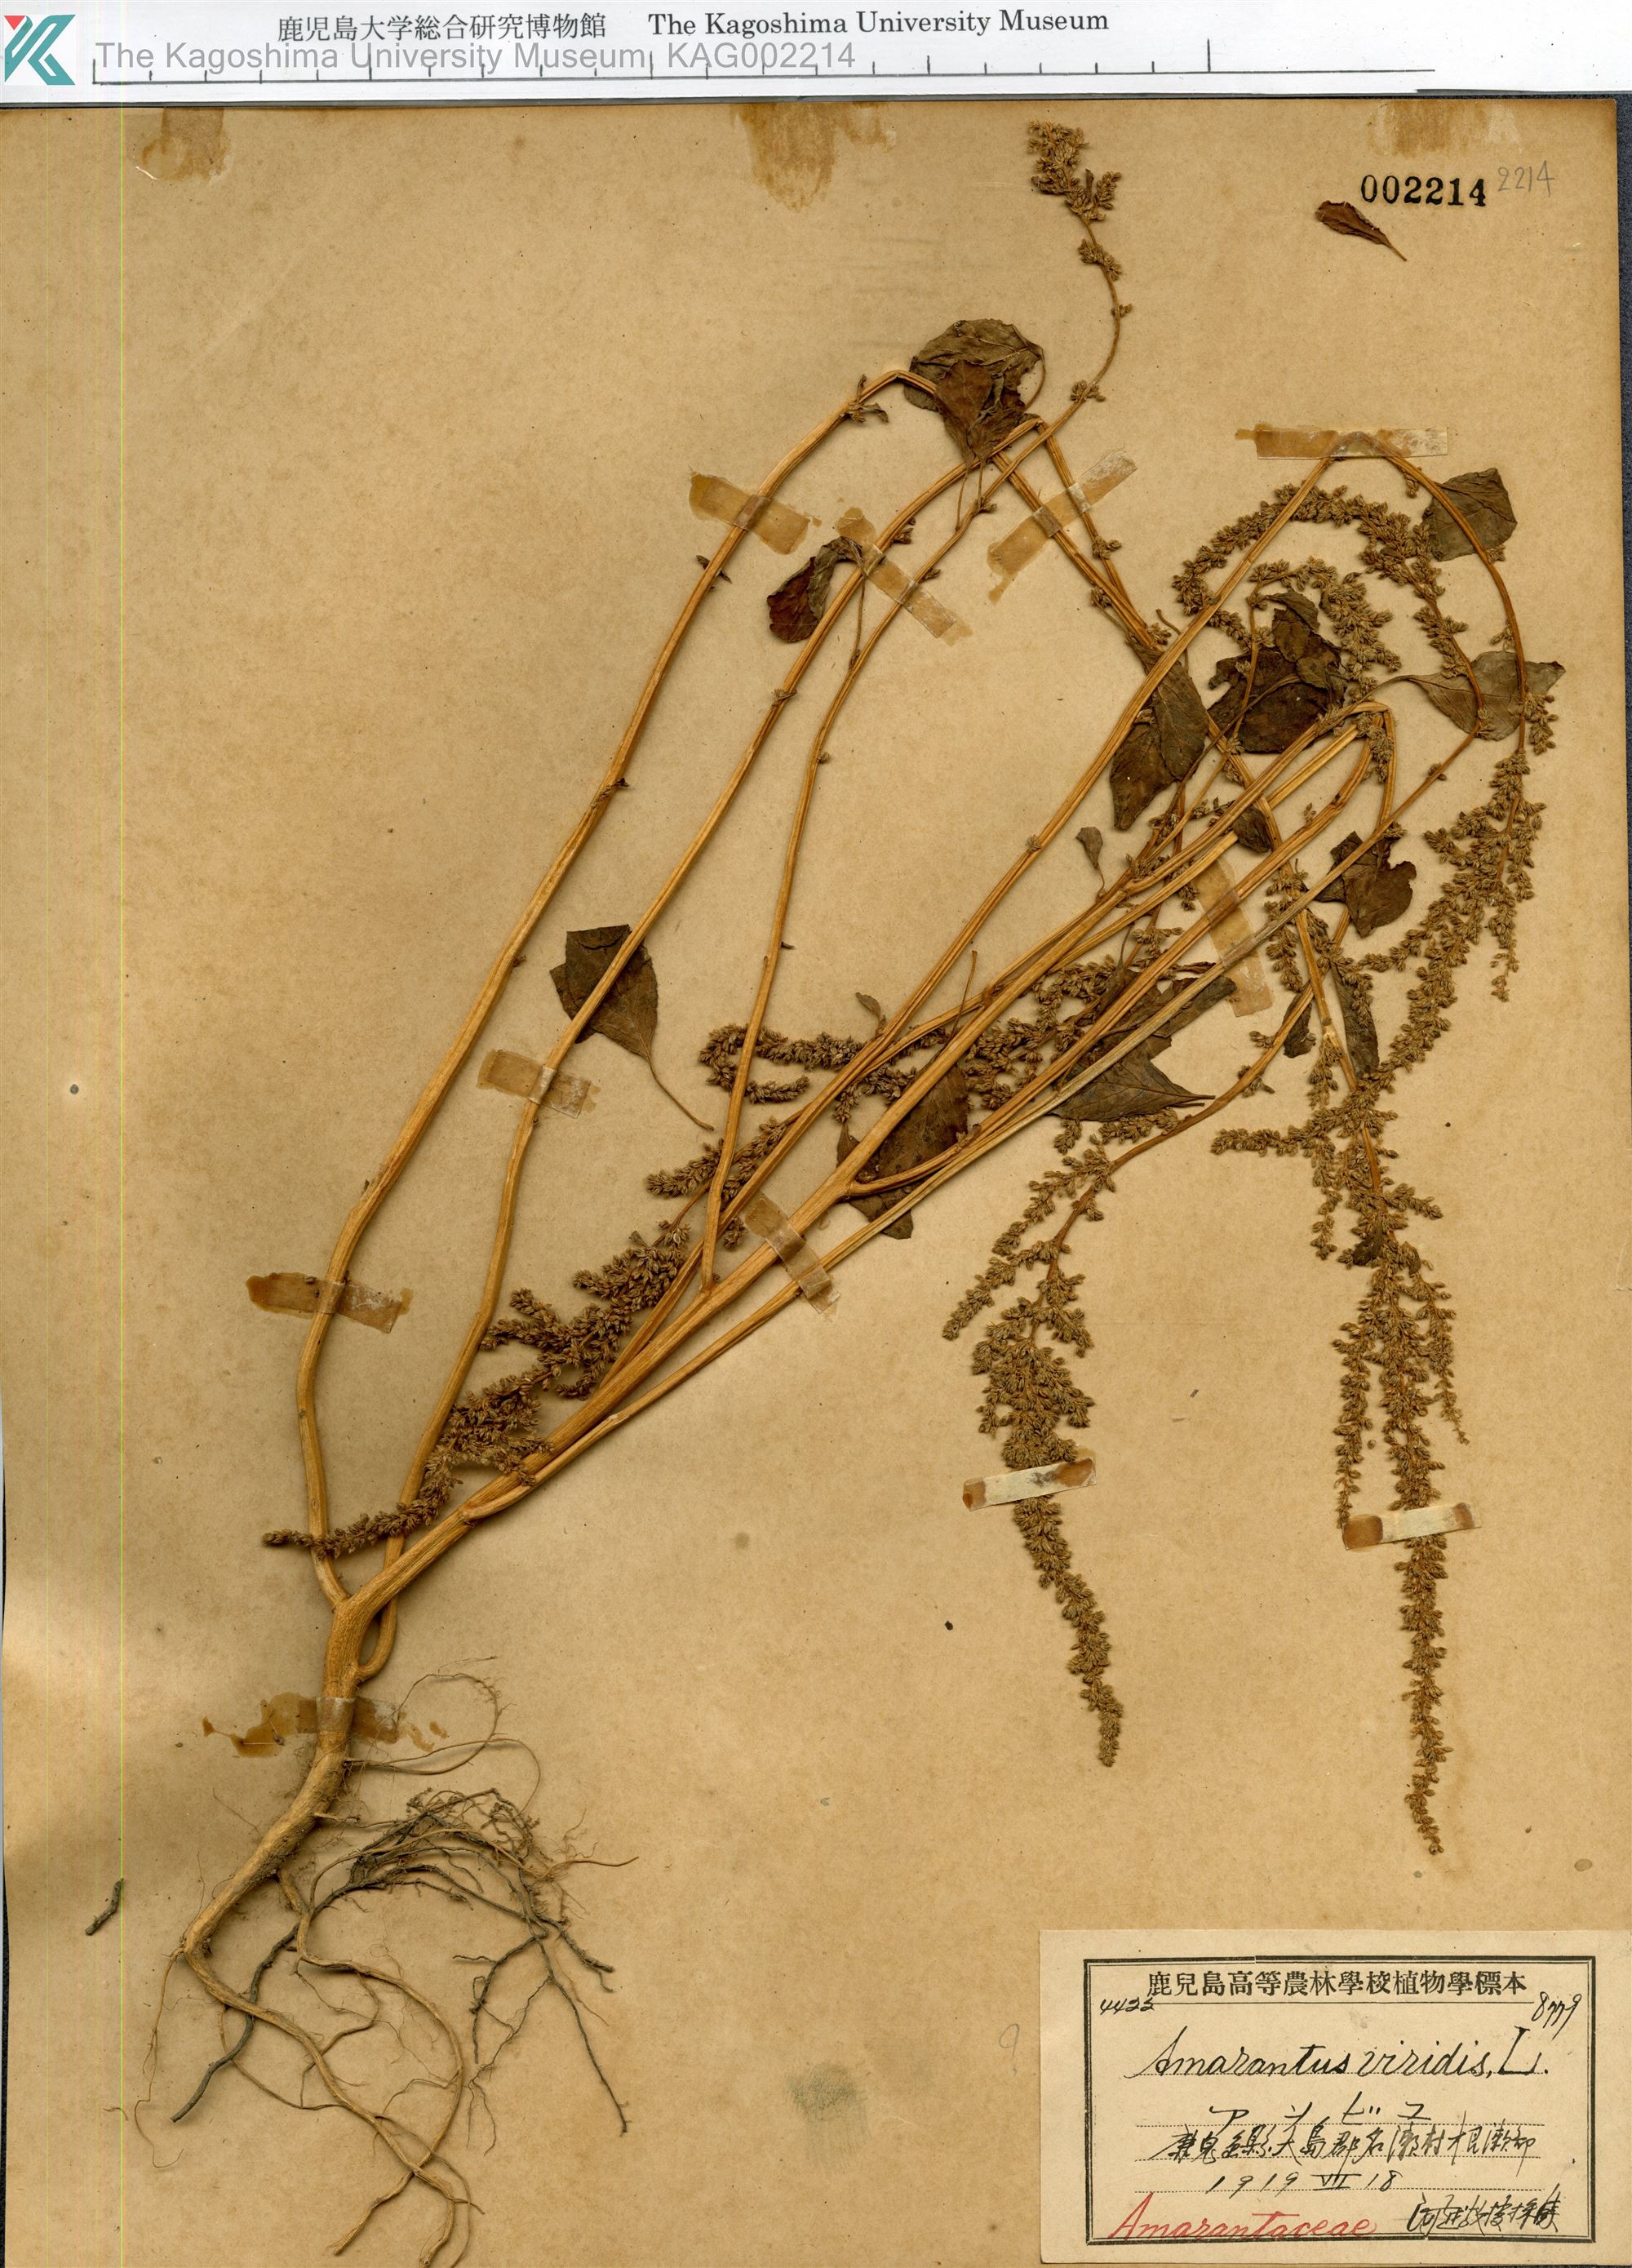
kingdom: Plantae
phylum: Tracheophyta
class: Magnoliopsida
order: Caryophyllales
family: Amaranthaceae
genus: Amaranthus
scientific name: Amaranthus viridis
